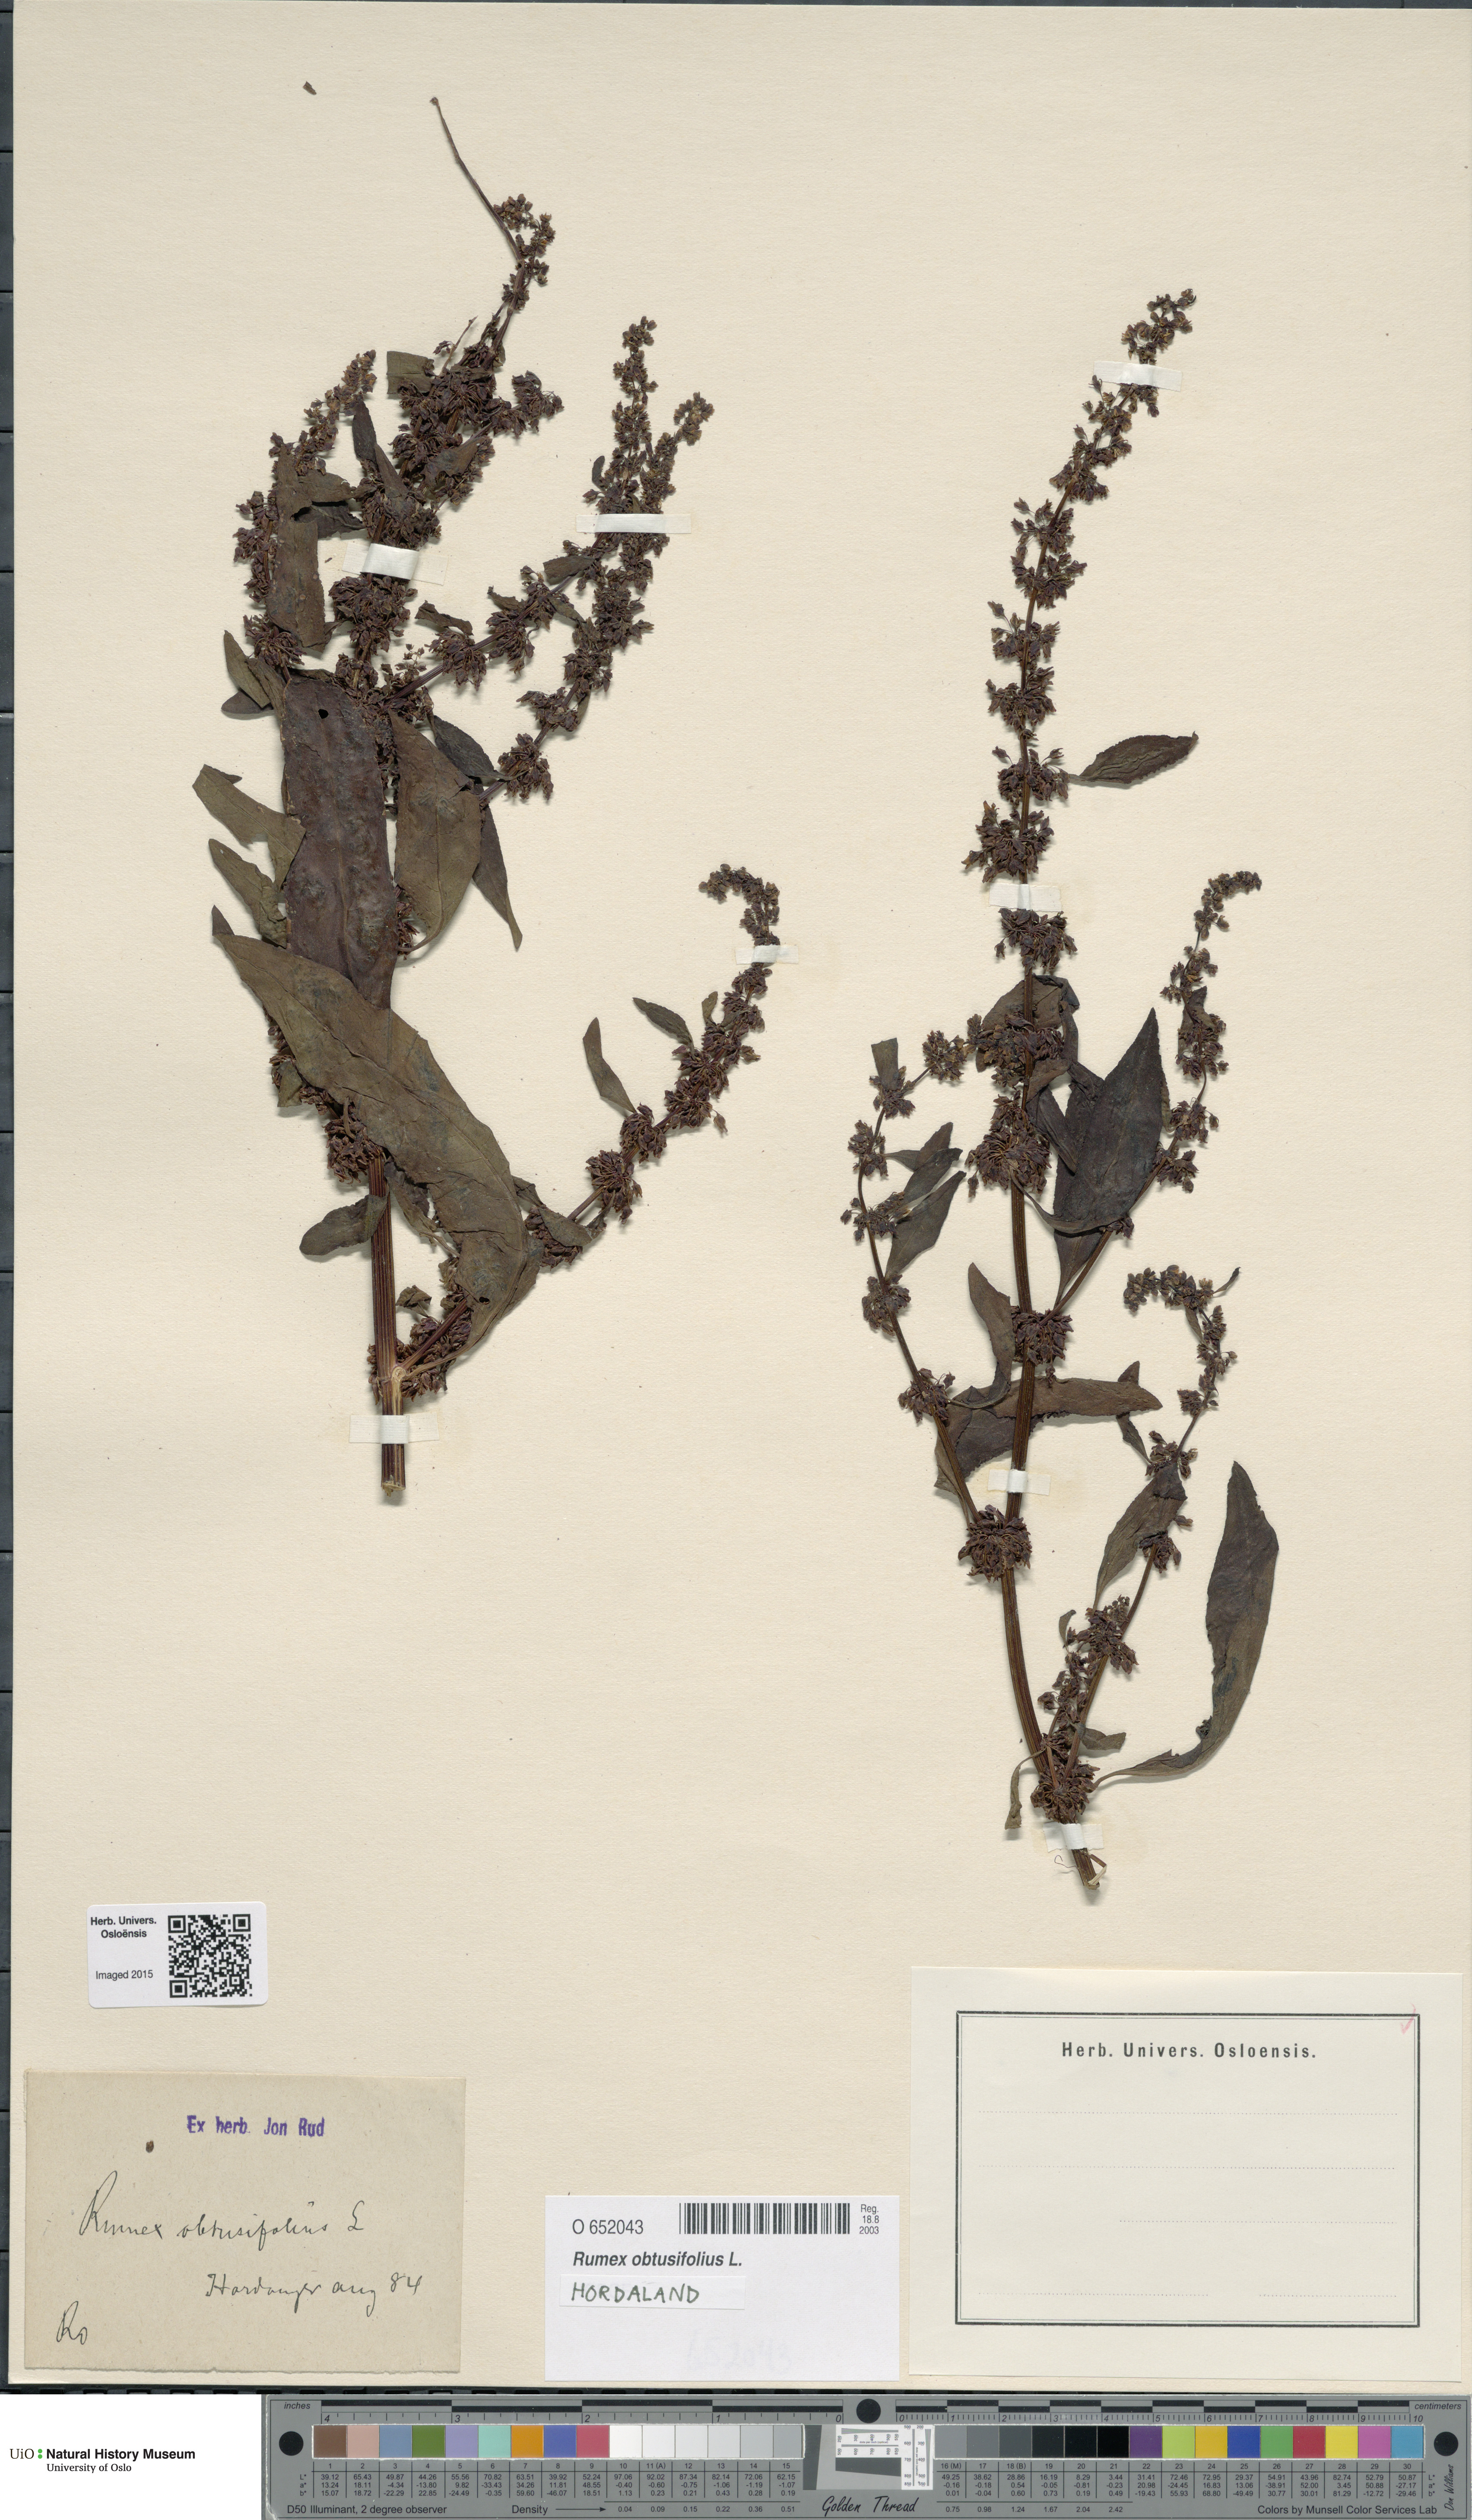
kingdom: Plantae
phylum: Tracheophyta
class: Magnoliopsida
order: Caryophyllales
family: Polygonaceae
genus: Rumex
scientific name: Rumex obtusifolius
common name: Bitter dock
